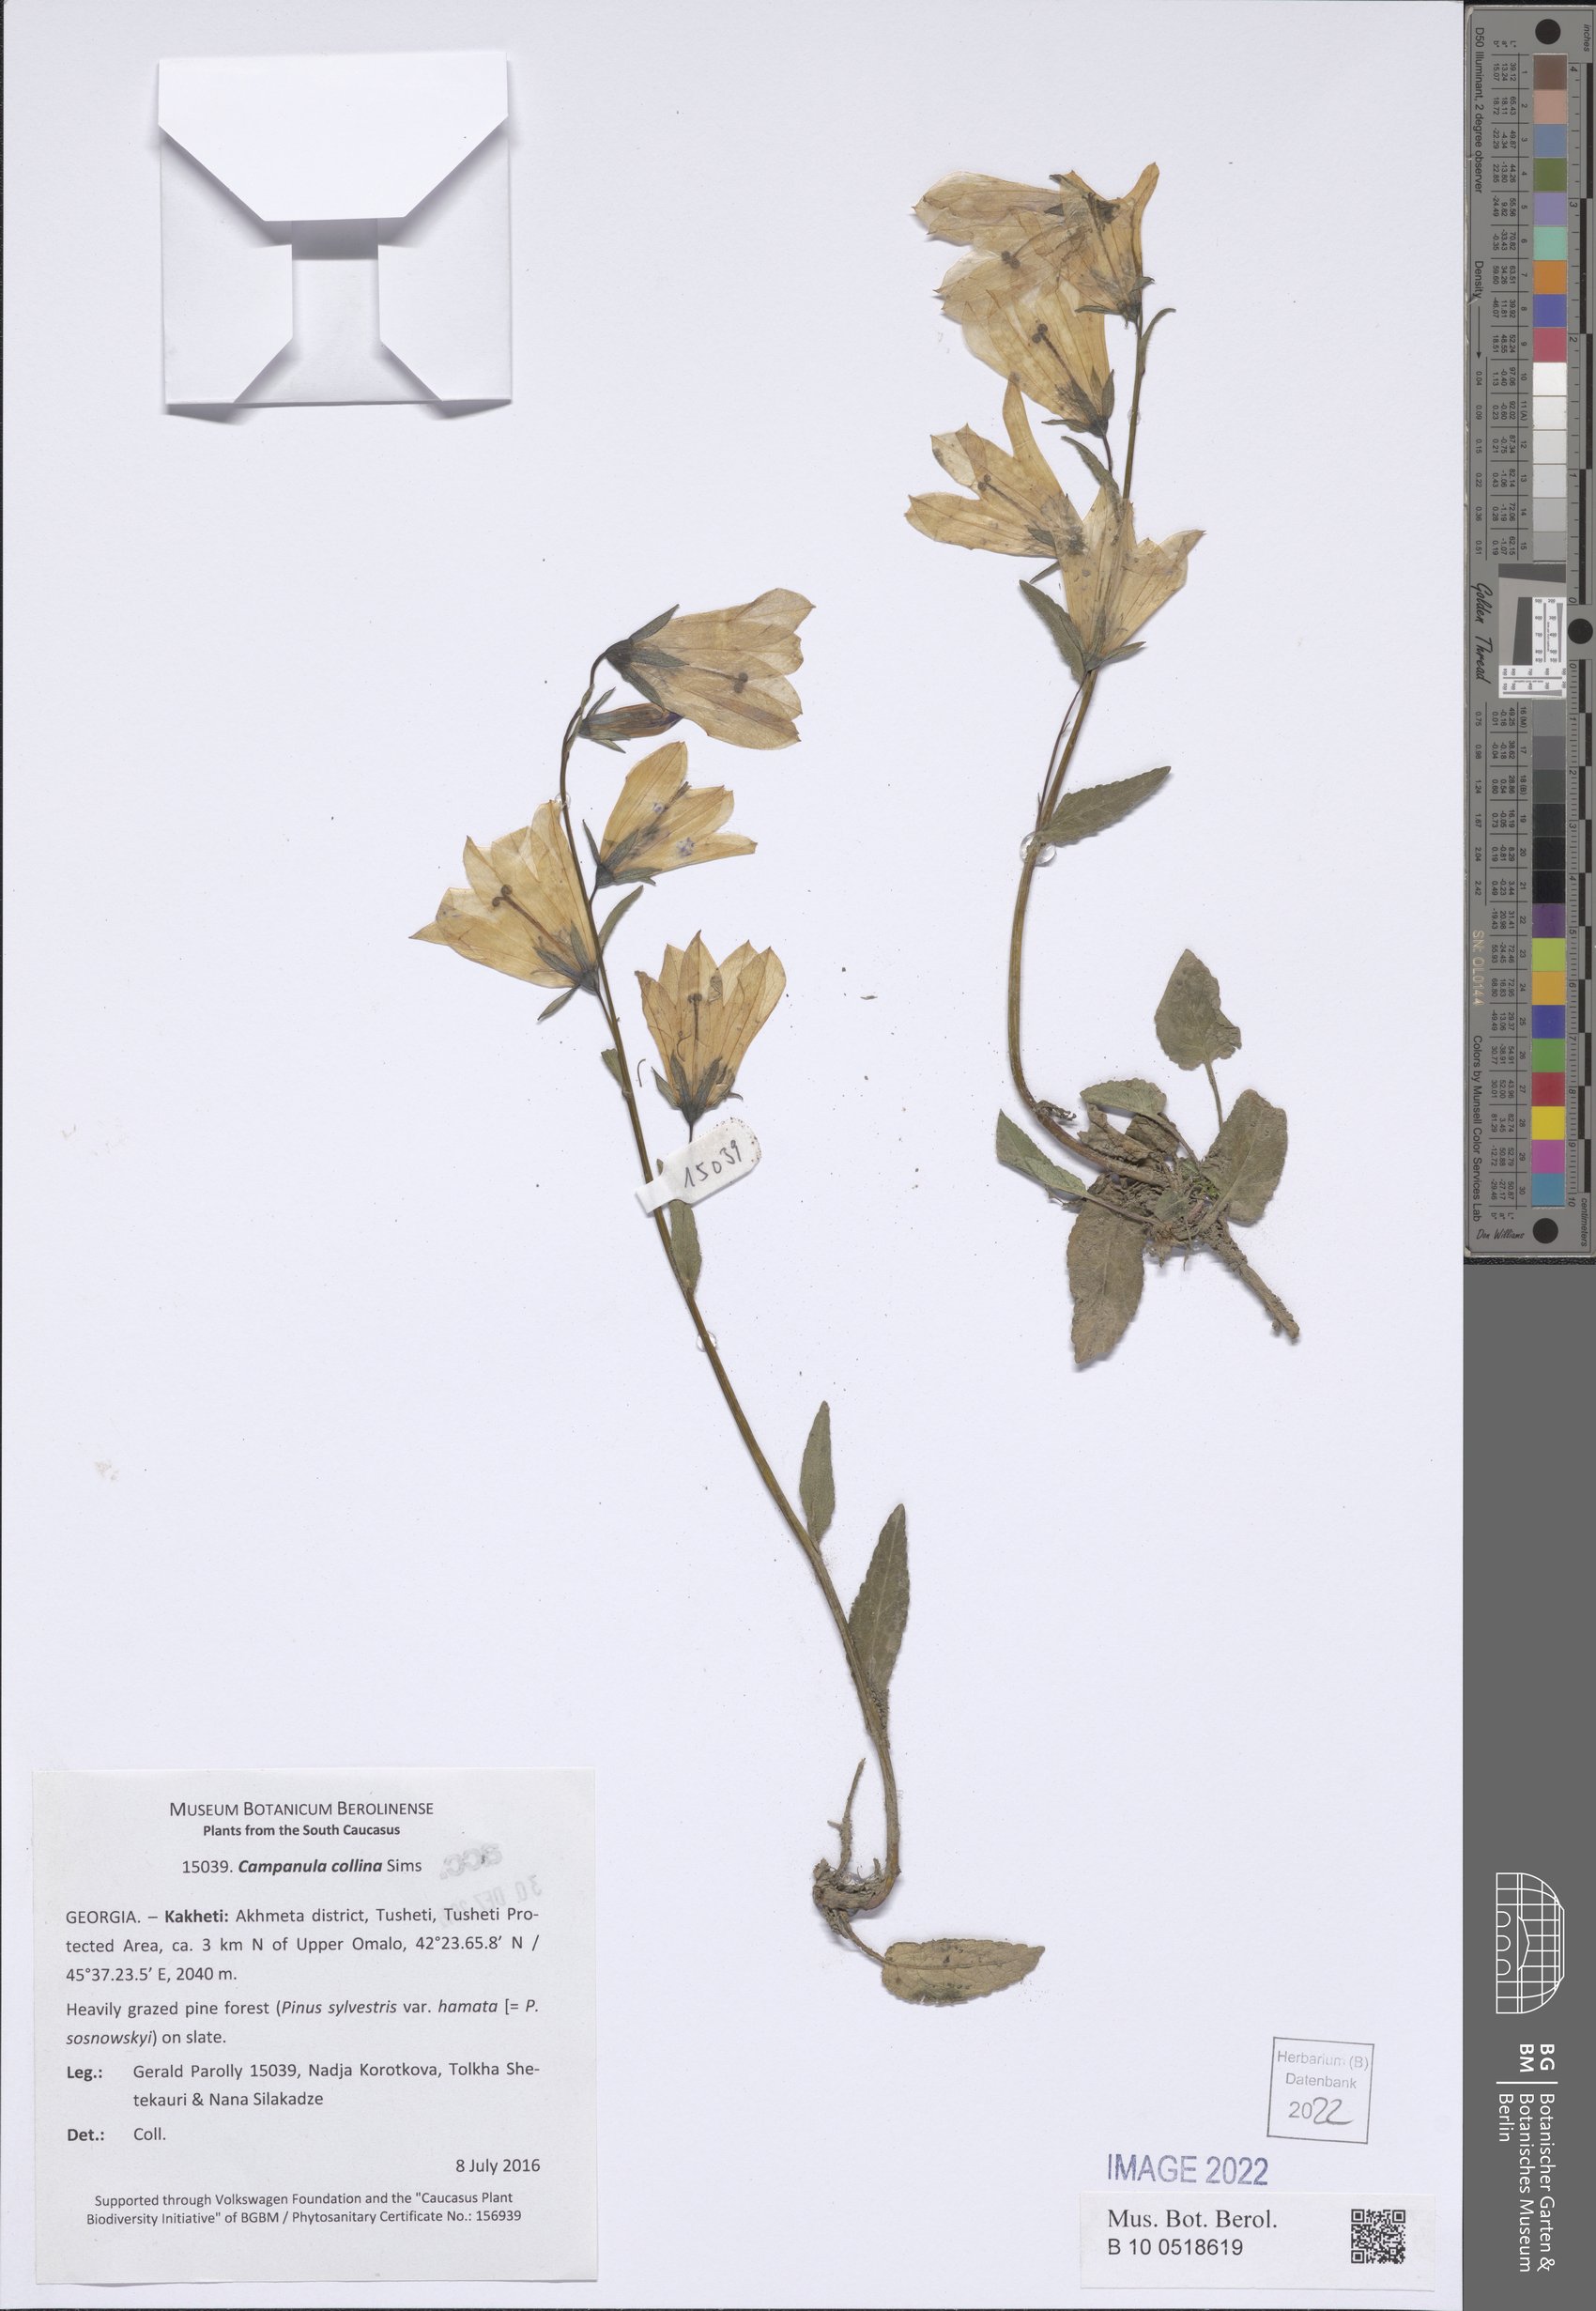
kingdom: Plantae
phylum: Tracheophyta
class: Magnoliopsida
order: Asterales
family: Campanulaceae
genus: Campanula
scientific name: Campanula collina
